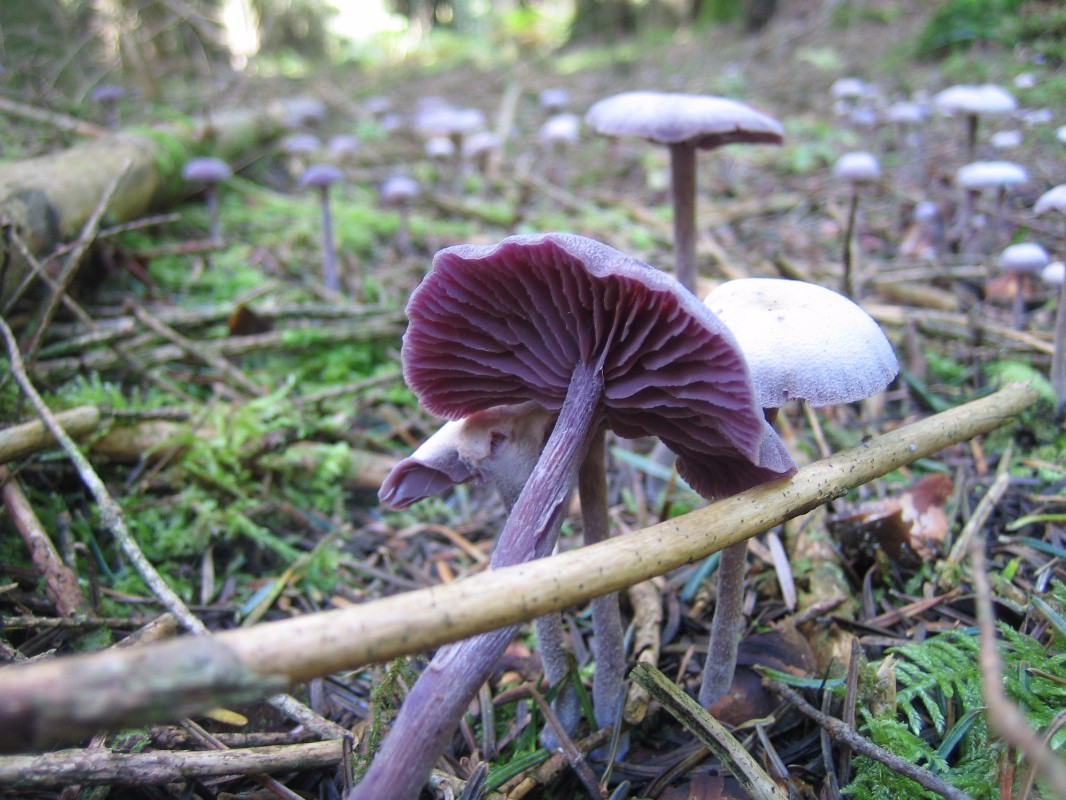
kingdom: Fungi
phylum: Basidiomycota
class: Agaricomycetes
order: Agaricales
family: Hydnangiaceae
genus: Laccaria
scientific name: Laccaria amethystina
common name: violet ametysthat
